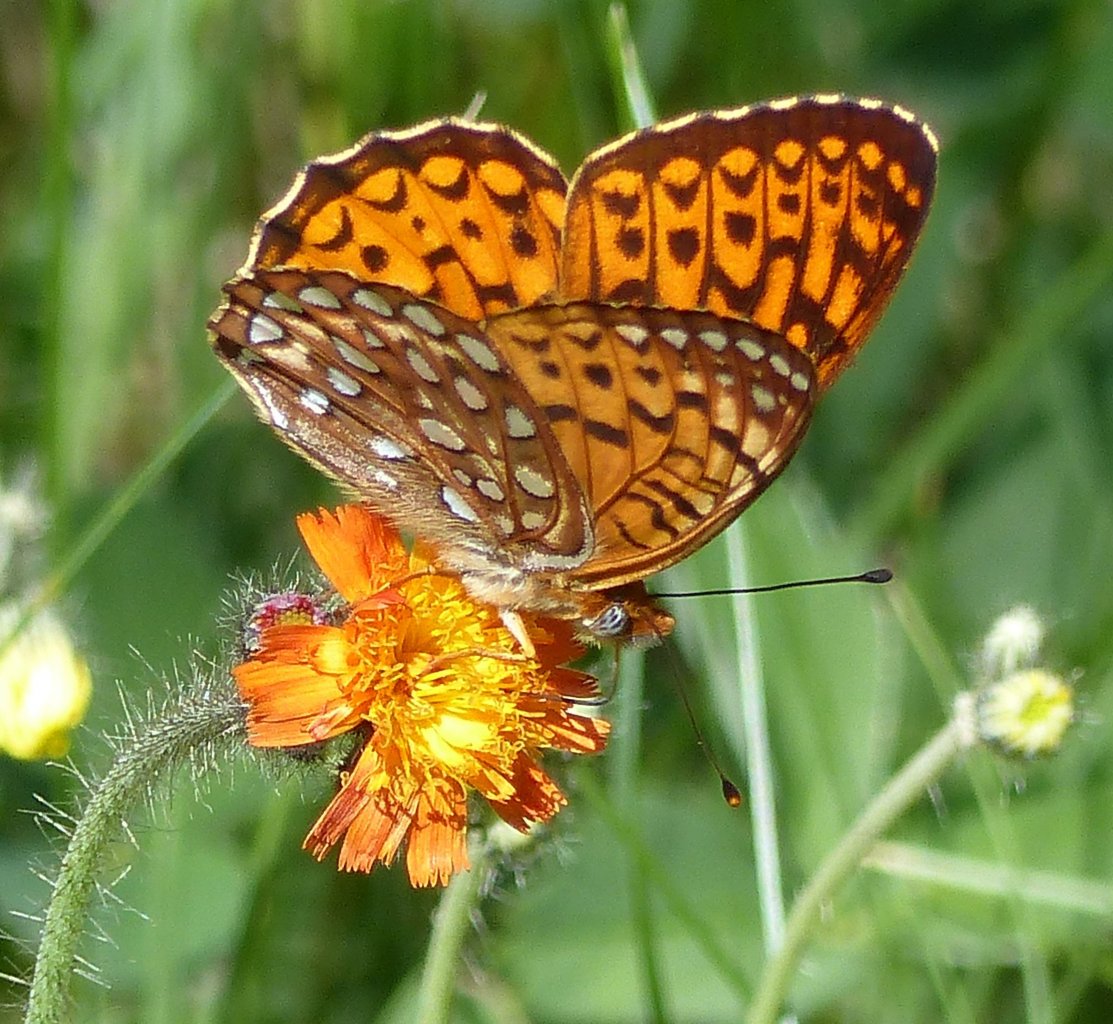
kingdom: Animalia
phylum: Arthropoda
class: Insecta
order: Lepidoptera
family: Nymphalidae
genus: Speyeria
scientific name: Speyeria atlantis
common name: Atlantis Fritillary
